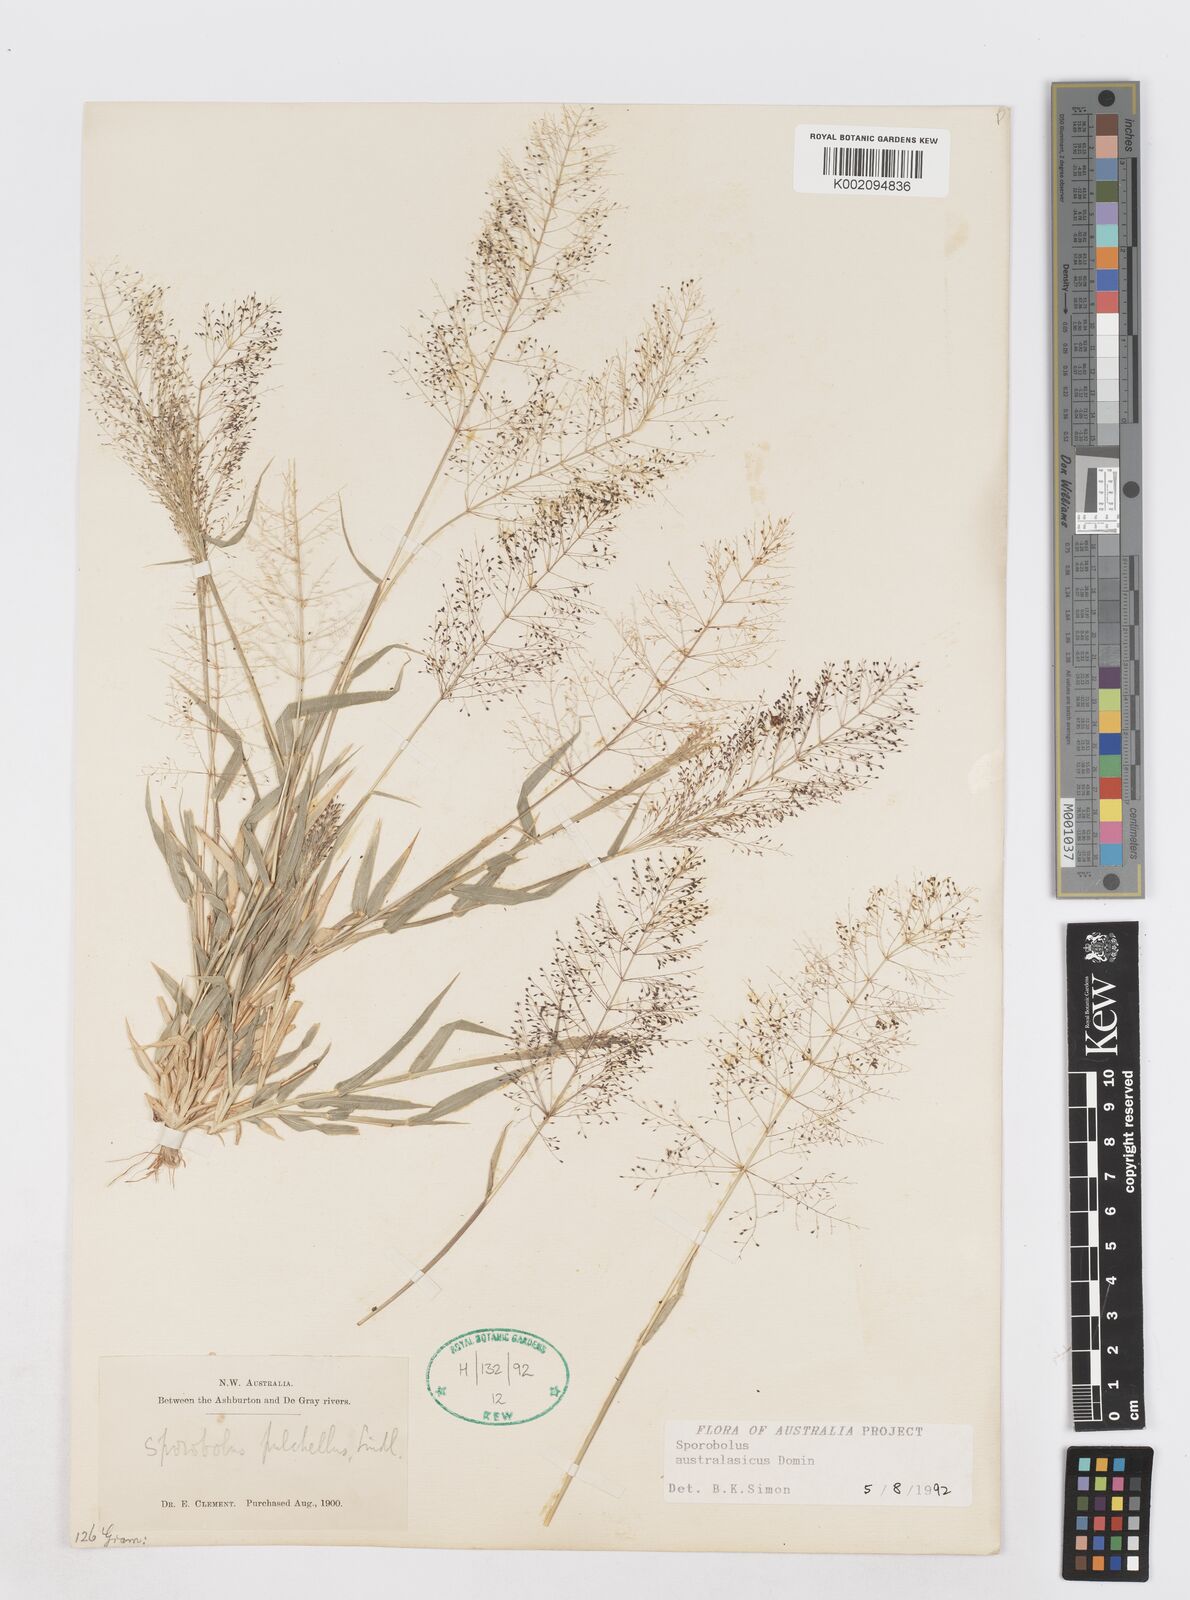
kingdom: Plantae
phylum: Tracheophyta
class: Liliopsida
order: Poales
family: Poaceae
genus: Sporobolus
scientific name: Sporobolus australasicus
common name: Australian dropseed
